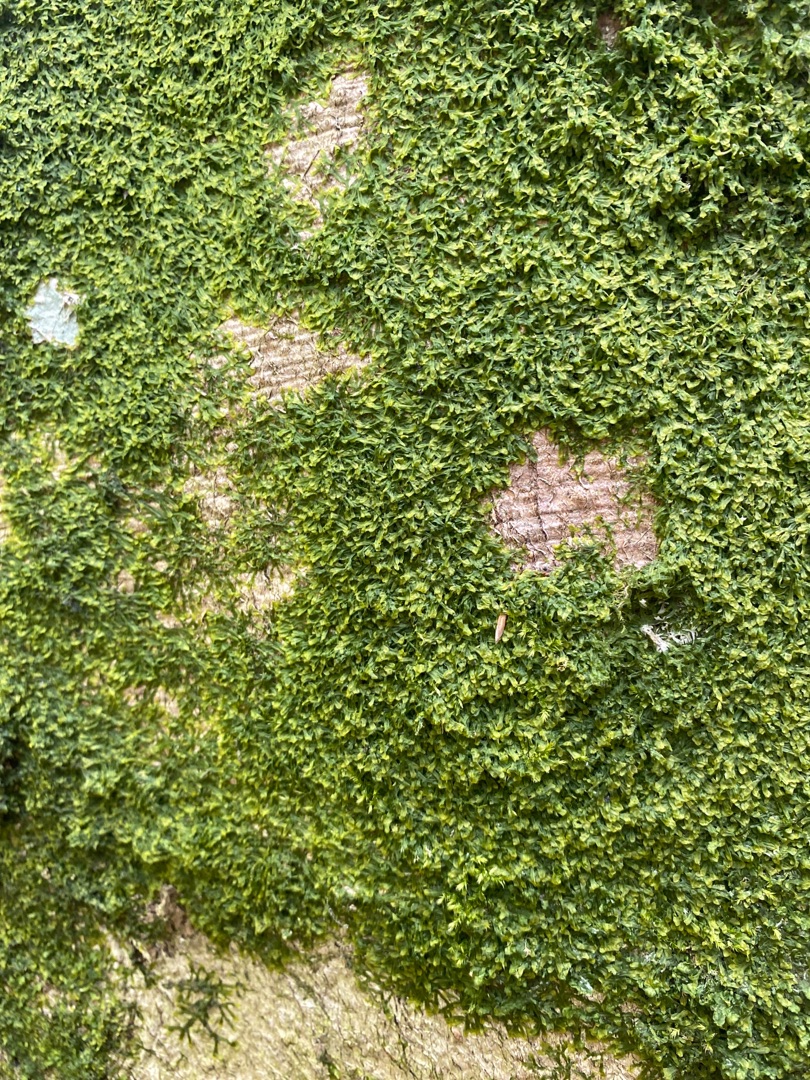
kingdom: Plantae
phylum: Marchantiophyta
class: Jungermanniopsida
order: Metzgeriales
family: Metzgeriaceae
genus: Metzgeria
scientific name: Metzgeria furcata
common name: Almindelig gaffelløv
